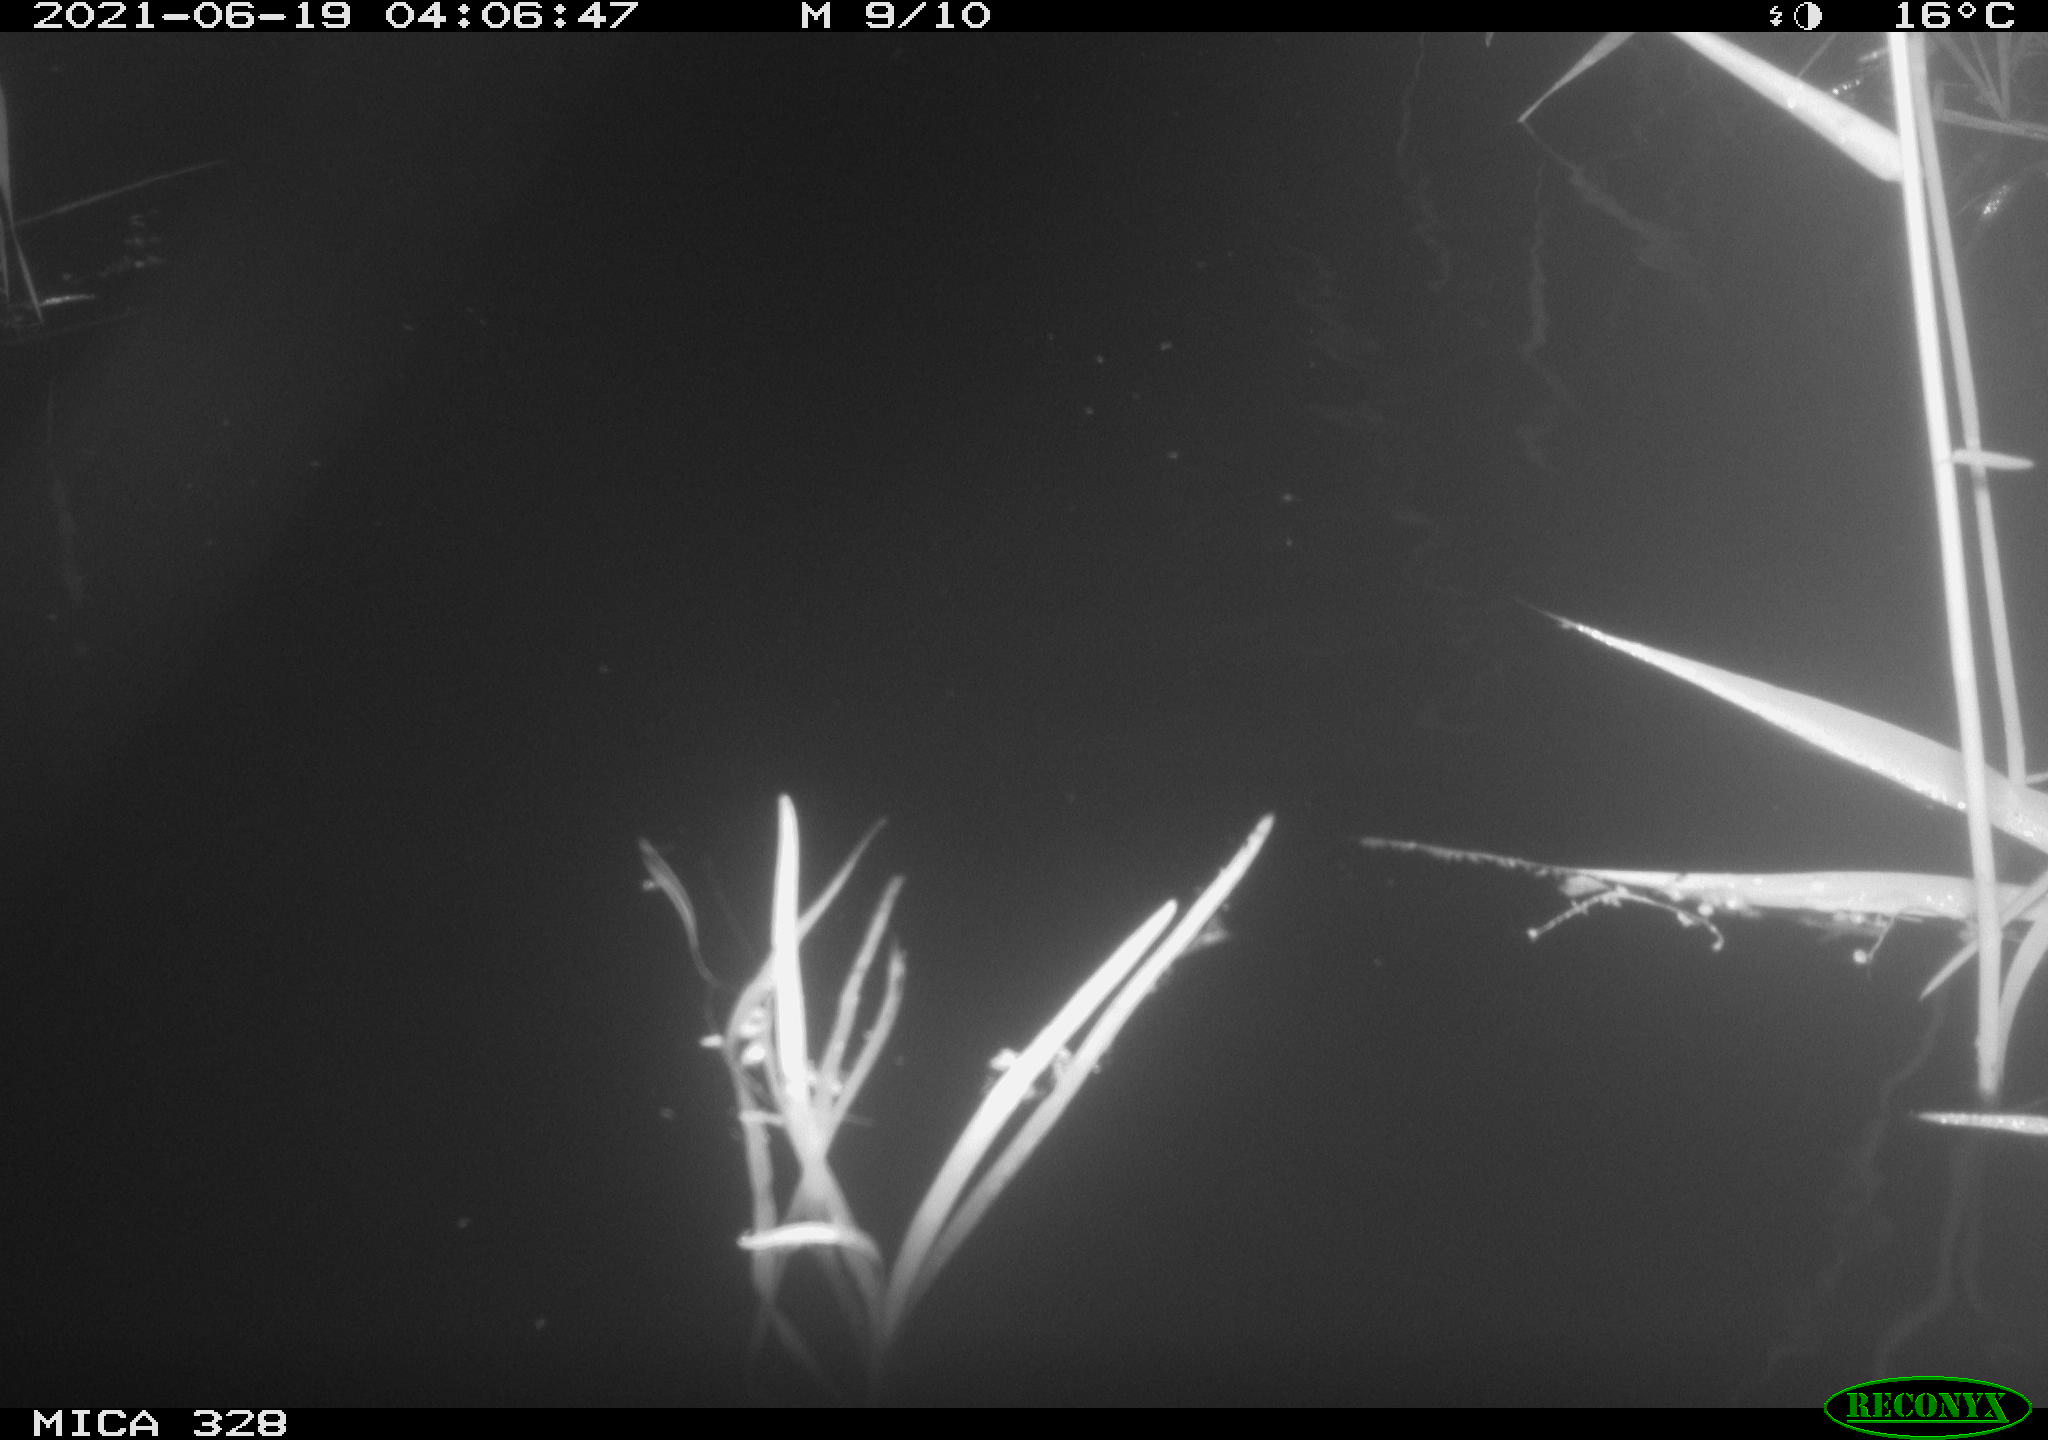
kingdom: Animalia
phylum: Chordata
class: Mammalia
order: Rodentia
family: Cricetidae
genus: Ondatra
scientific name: Ondatra zibethicus
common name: Muskrat
